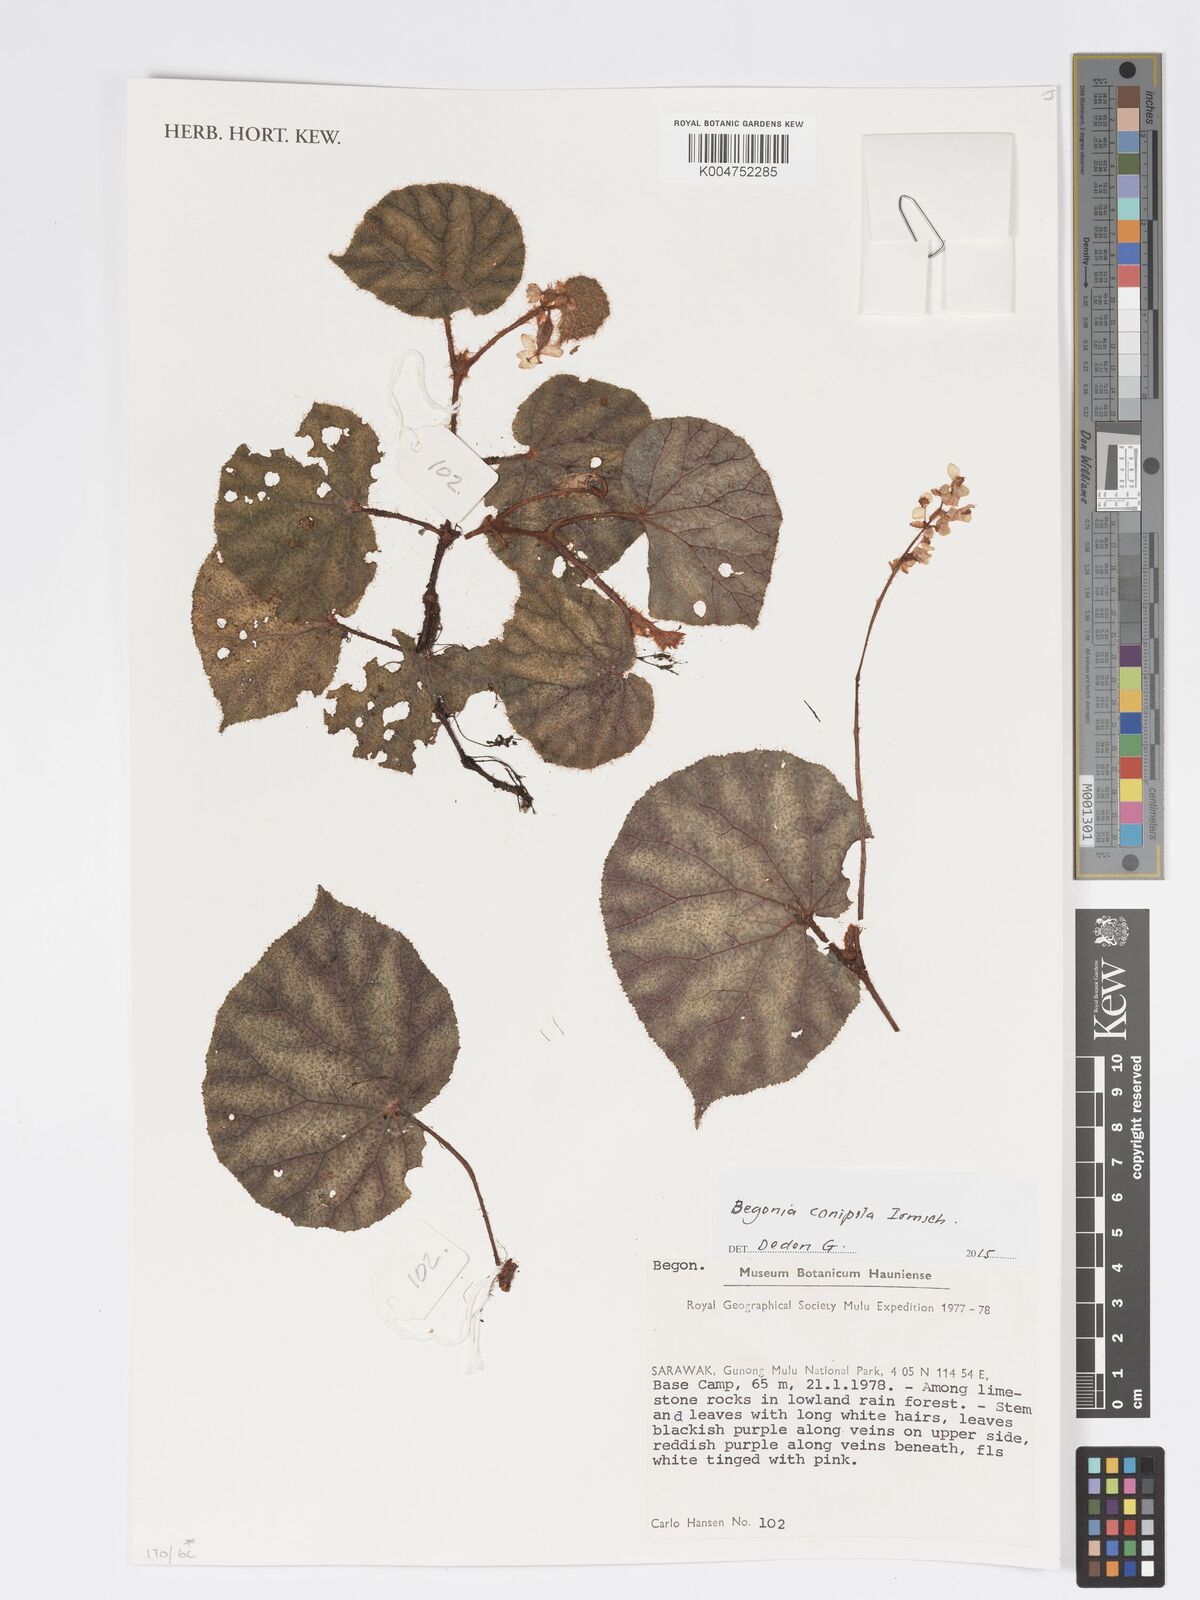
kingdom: Plantae
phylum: Tracheophyta
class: Magnoliopsida
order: Cucurbitales
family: Begoniaceae
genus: Begonia
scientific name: Begonia conipila
